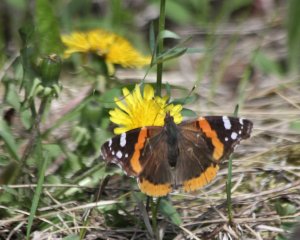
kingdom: Animalia
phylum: Arthropoda
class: Insecta
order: Lepidoptera
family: Nymphalidae
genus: Vanessa
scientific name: Vanessa atalanta
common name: Red Admiral
